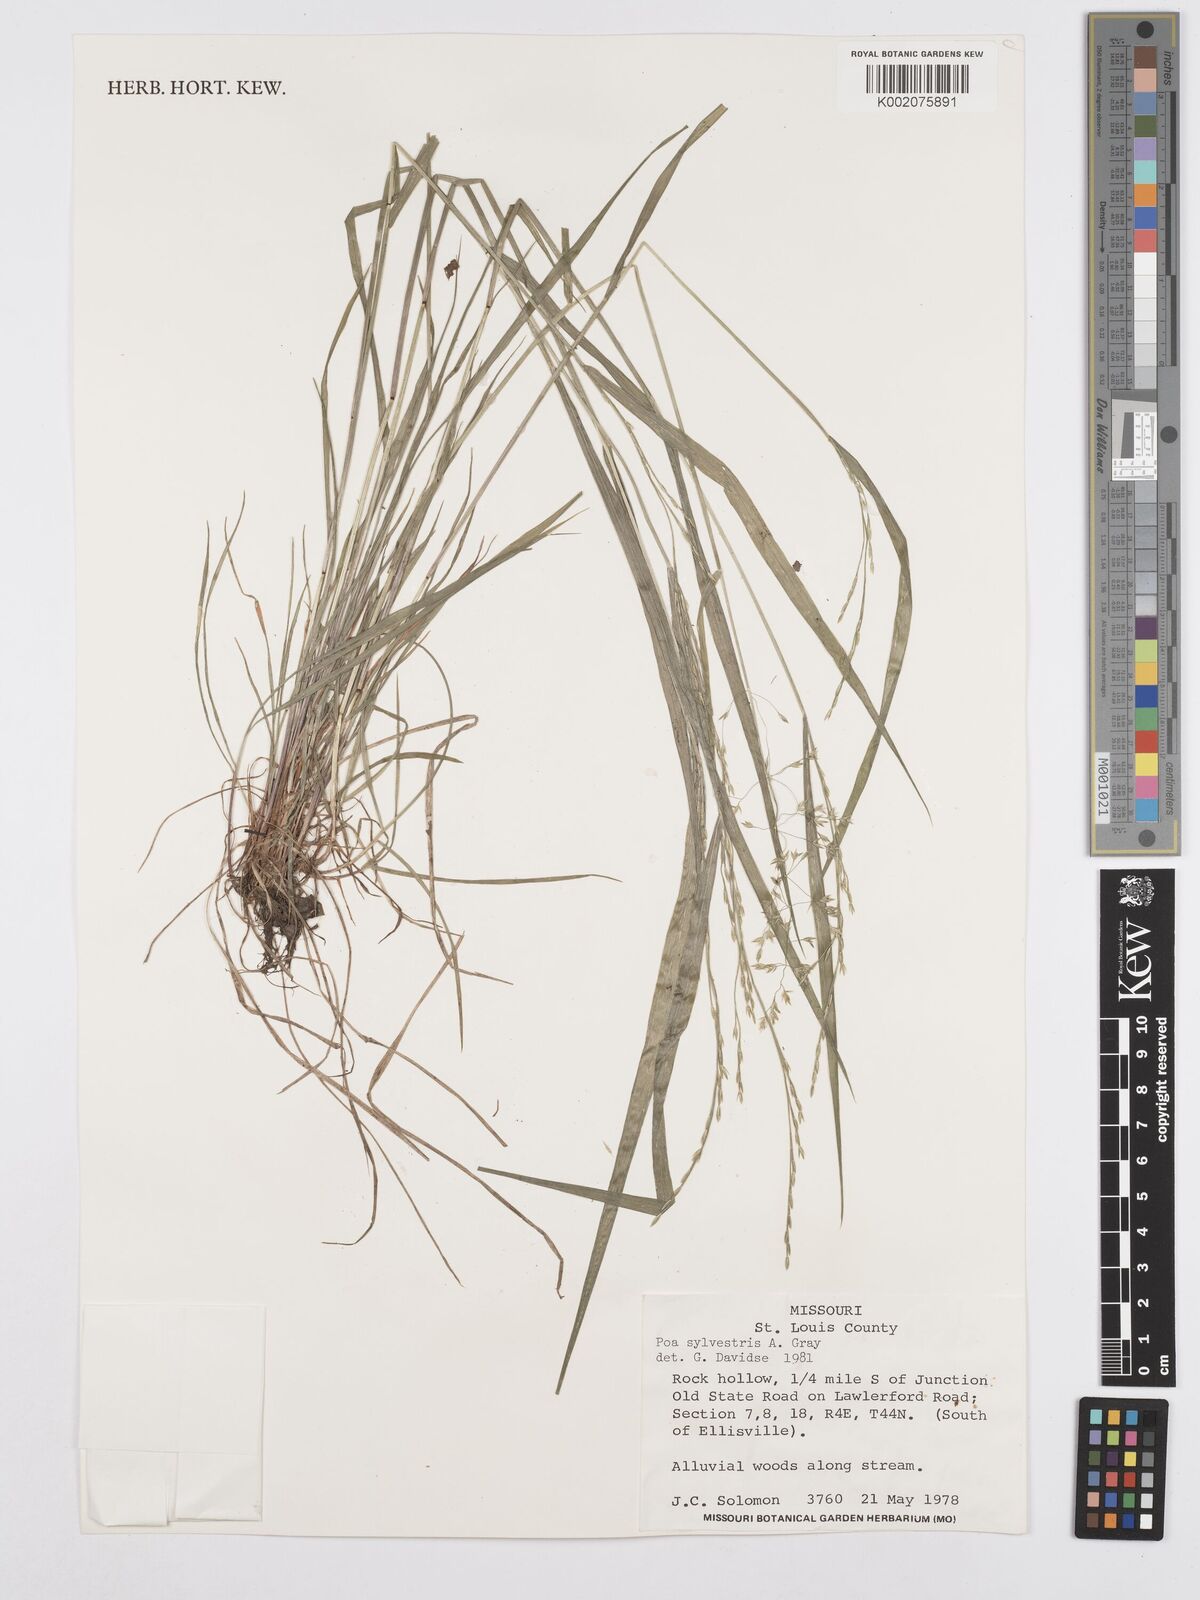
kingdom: Plantae
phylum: Tracheophyta
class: Liliopsida
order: Poales
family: Poaceae
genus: Poa
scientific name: Poa sylvestris
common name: North american woodland bluegrass
